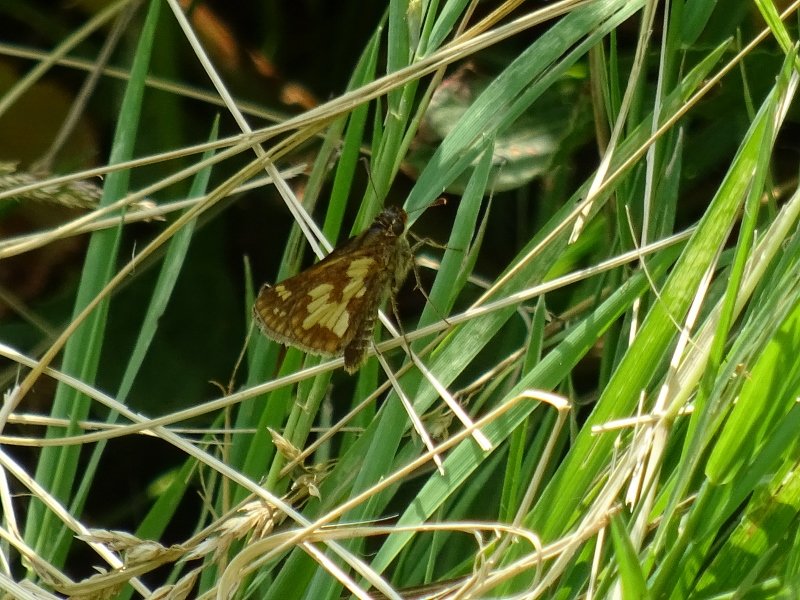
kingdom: Animalia
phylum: Arthropoda
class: Insecta
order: Lepidoptera
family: Hesperiidae
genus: Polites
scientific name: Polites coras
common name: Peck's Skipper
